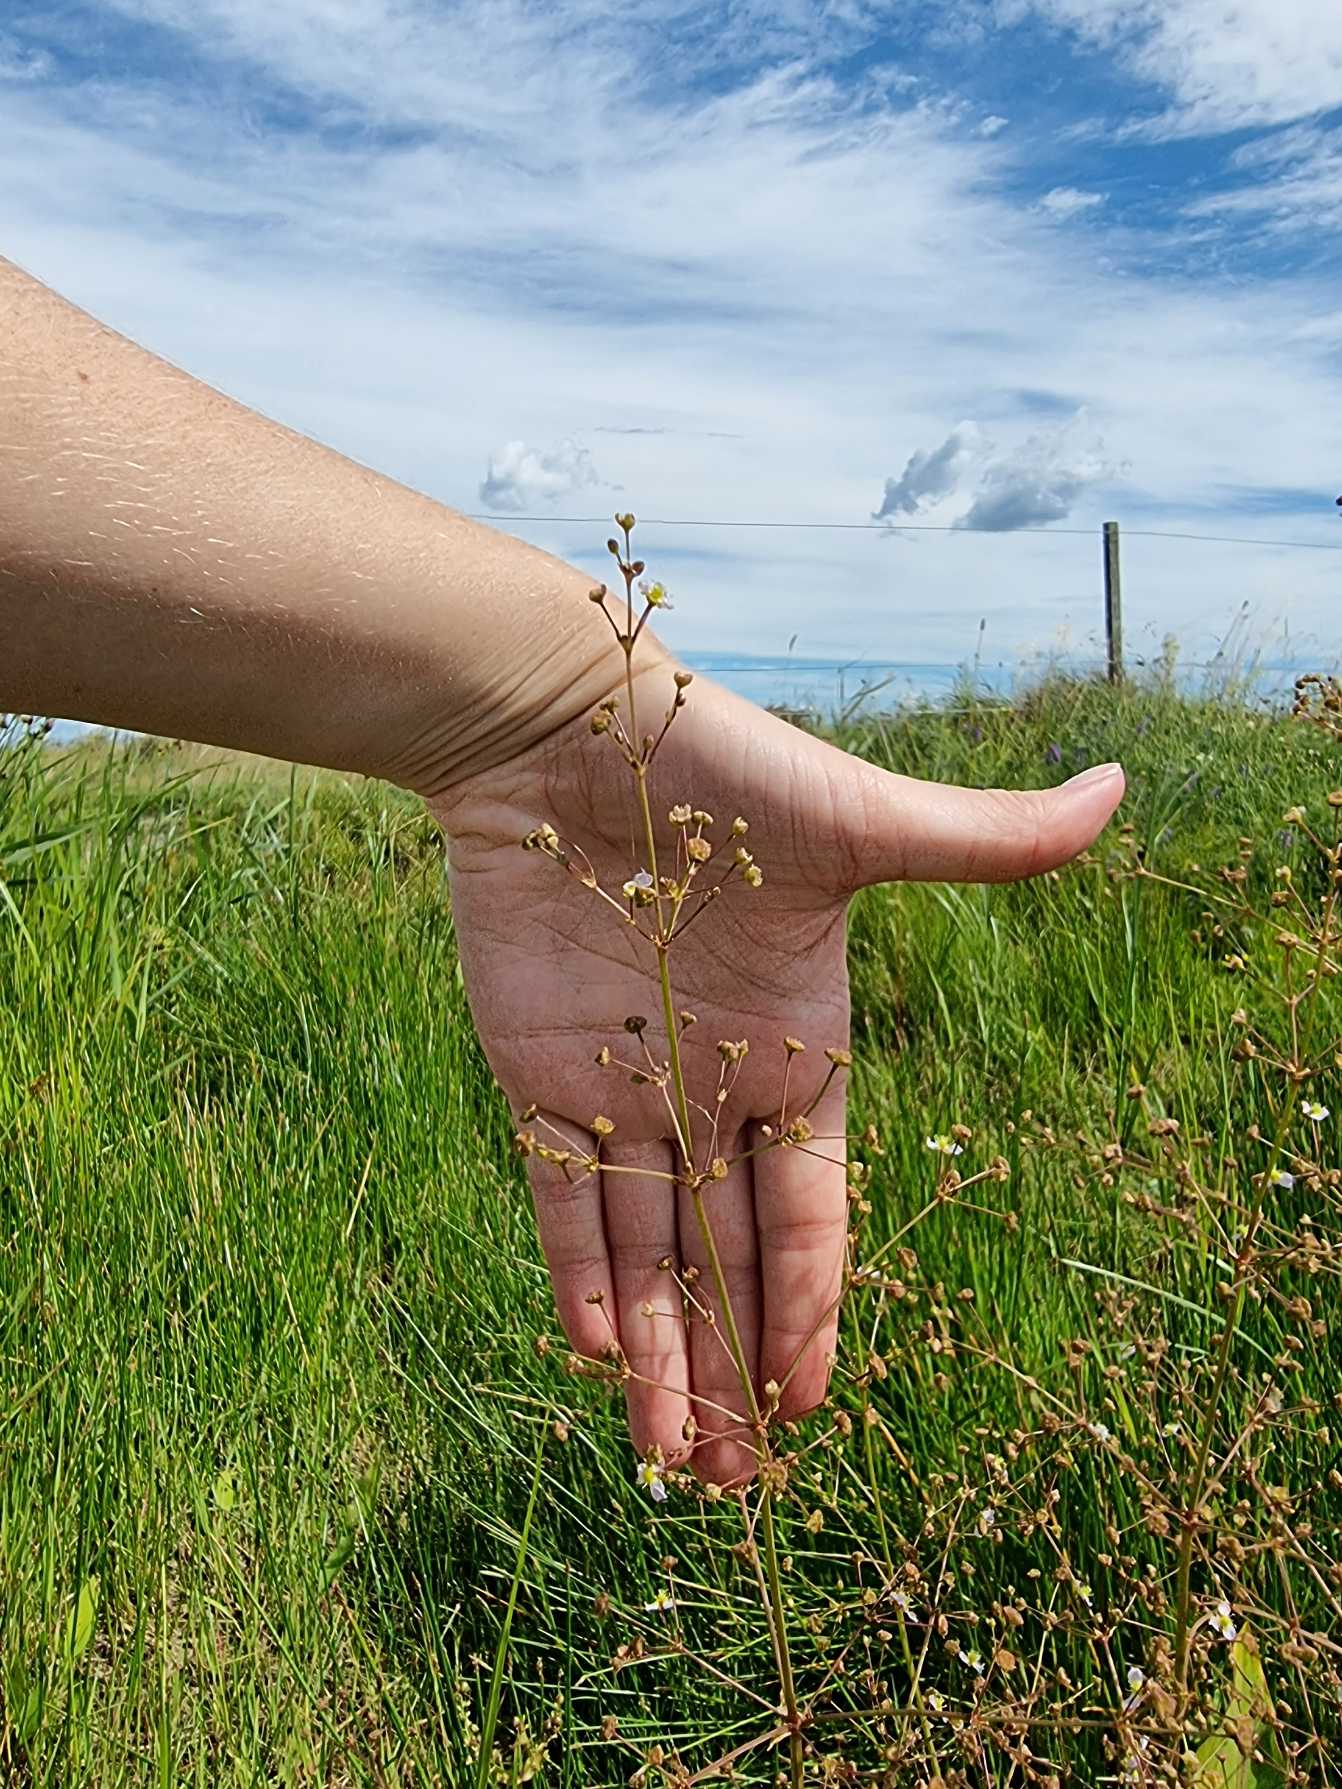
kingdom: Plantae
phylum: Tracheophyta
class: Liliopsida
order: Alismatales
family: Alismataceae
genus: Alisma
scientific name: Alisma plantago-aquatica
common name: Vejbred-skeblad
